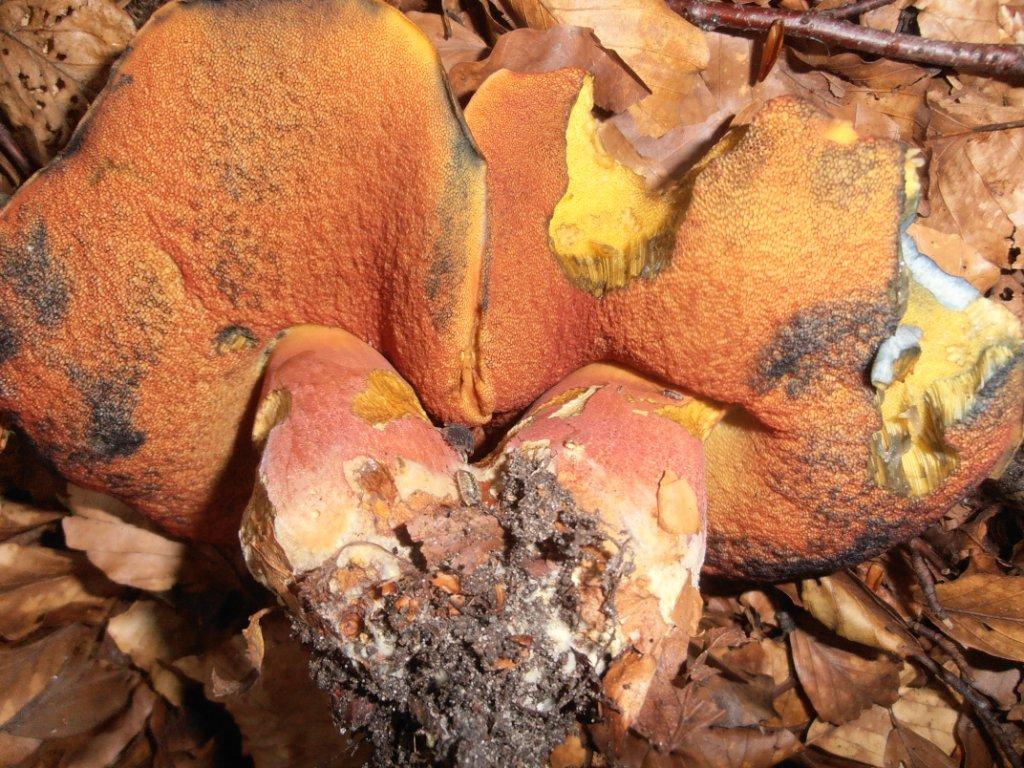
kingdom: Fungi
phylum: Basidiomycota
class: Agaricomycetes
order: Boletales
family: Boletaceae
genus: Neoboletus
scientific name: Neoboletus erythropus
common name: punktstokket indigorørhat
